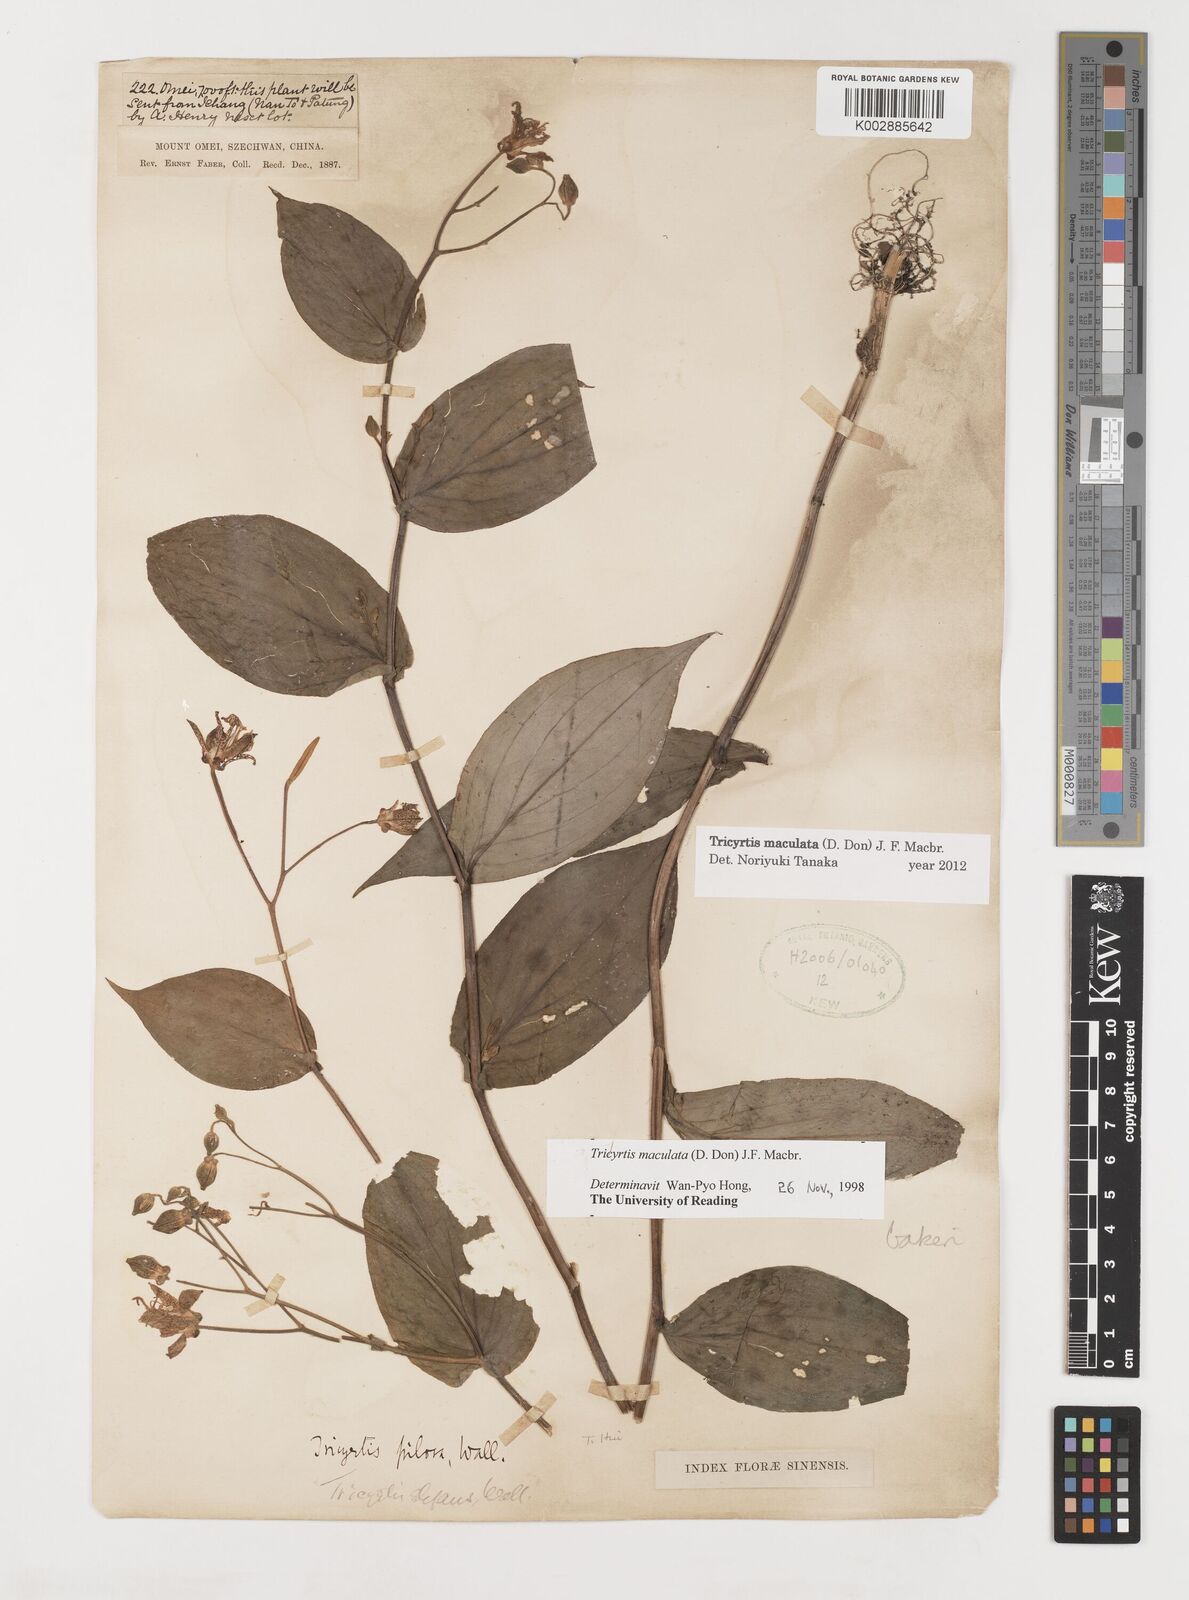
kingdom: Plantae
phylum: Tracheophyta
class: Liliopsida
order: Liliales
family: Liliaceae
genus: Tricyrtis
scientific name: Tricyrtis maculata
